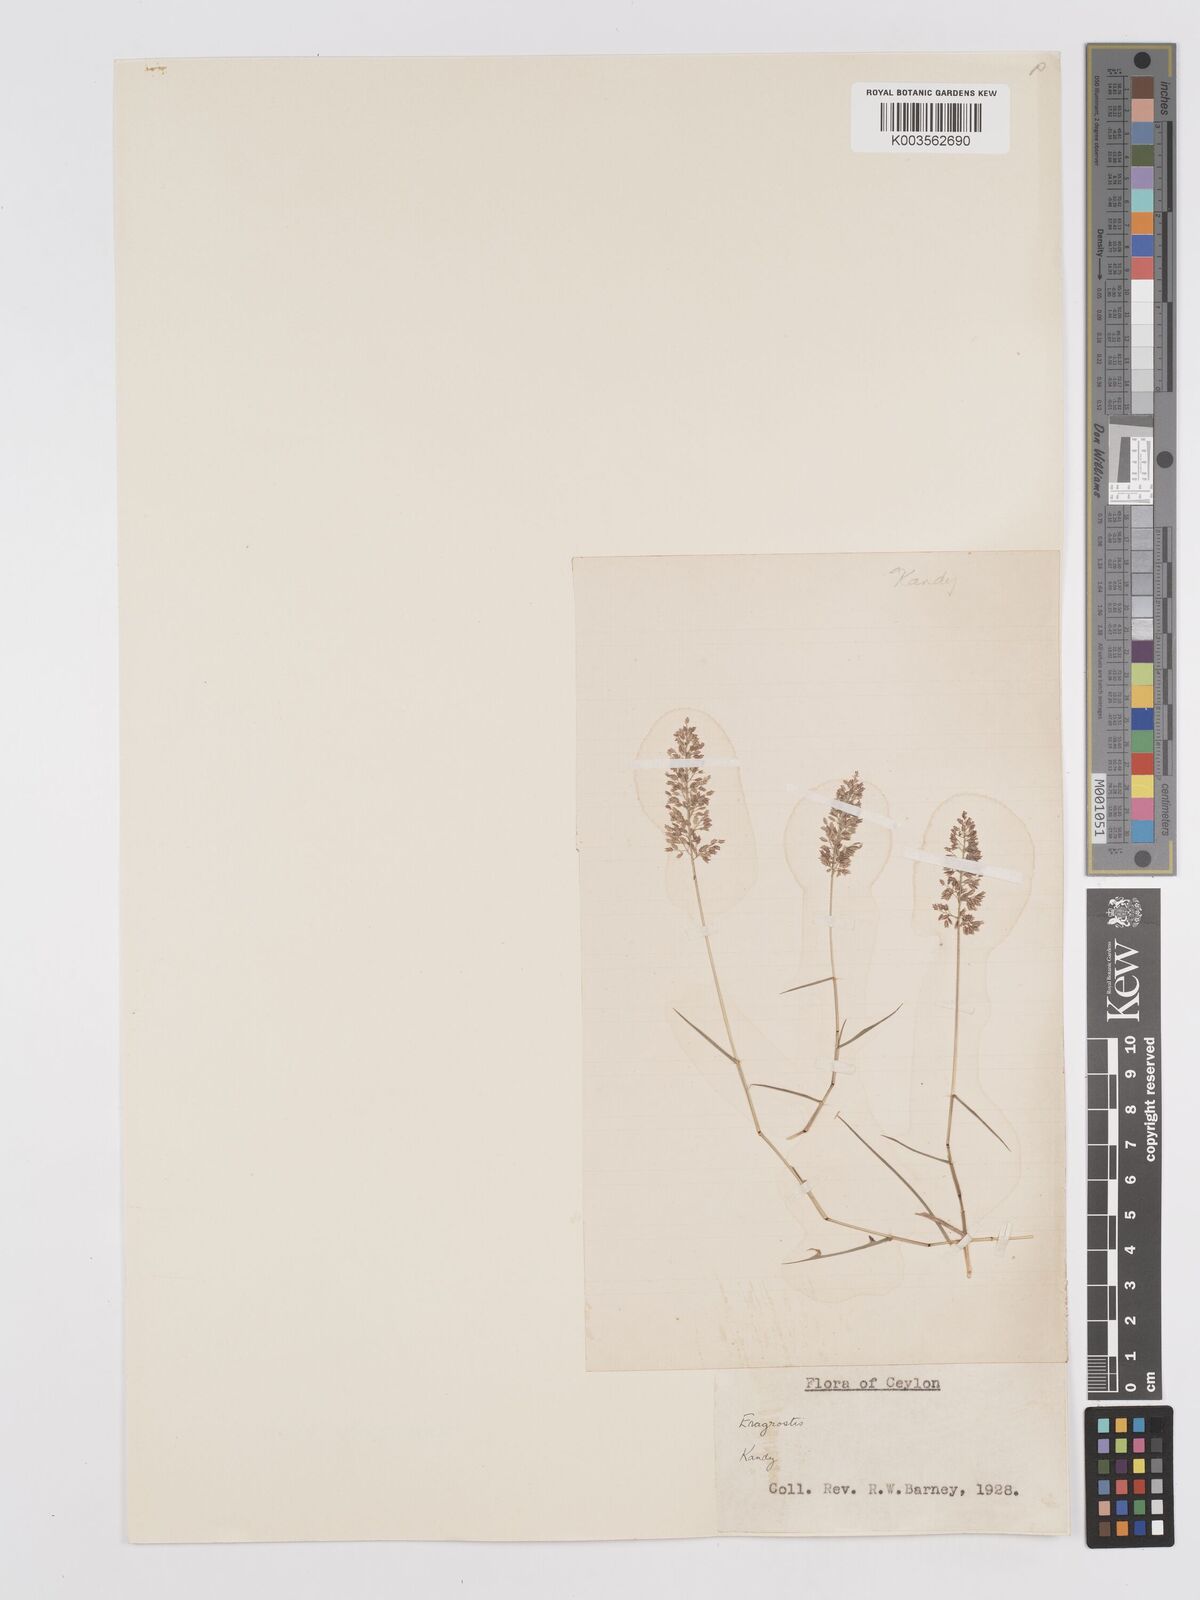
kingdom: Plantae
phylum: Tracheophyta
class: Liliopsida
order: Poales
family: Poaceae
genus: Eragrostis
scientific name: Eragrostis tenella
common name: Japanese lovegrass
